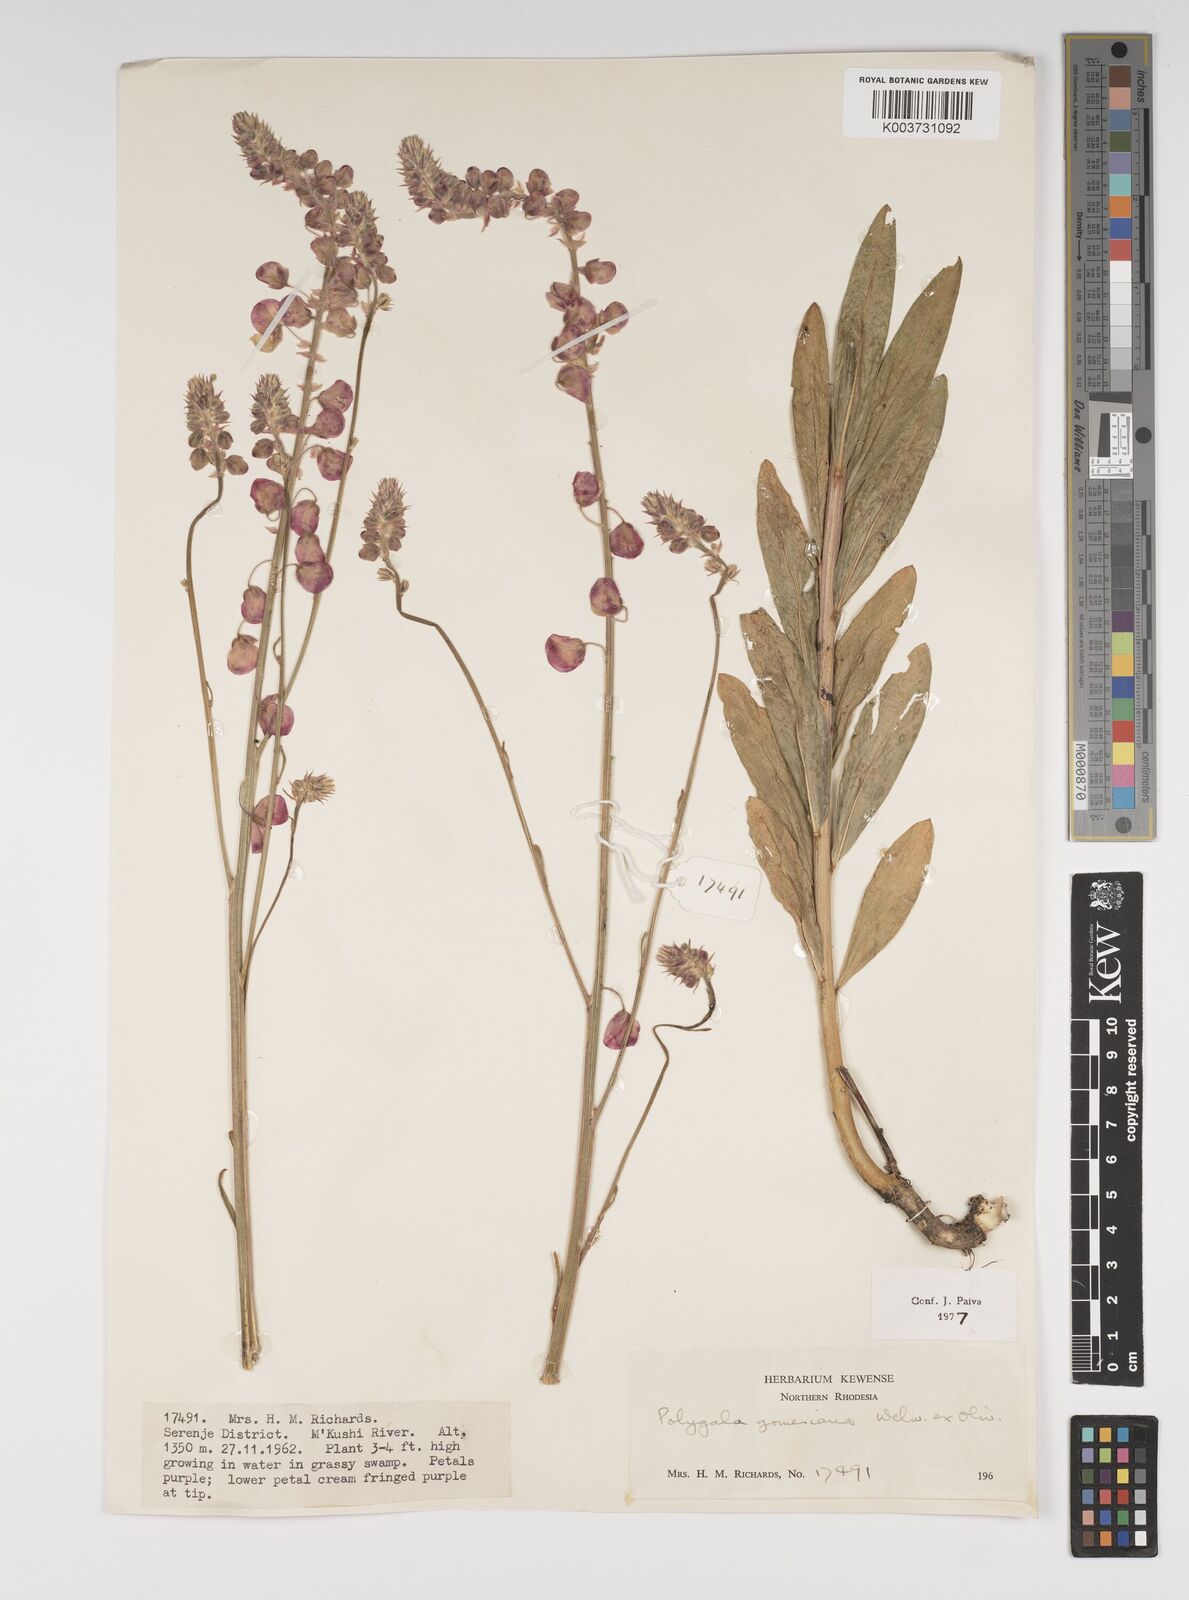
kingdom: Plantae
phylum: Tracheophyta
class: Magnoliopsida
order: Fabales
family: Polygalaceae
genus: Polygala
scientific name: Polygala gomesiana
